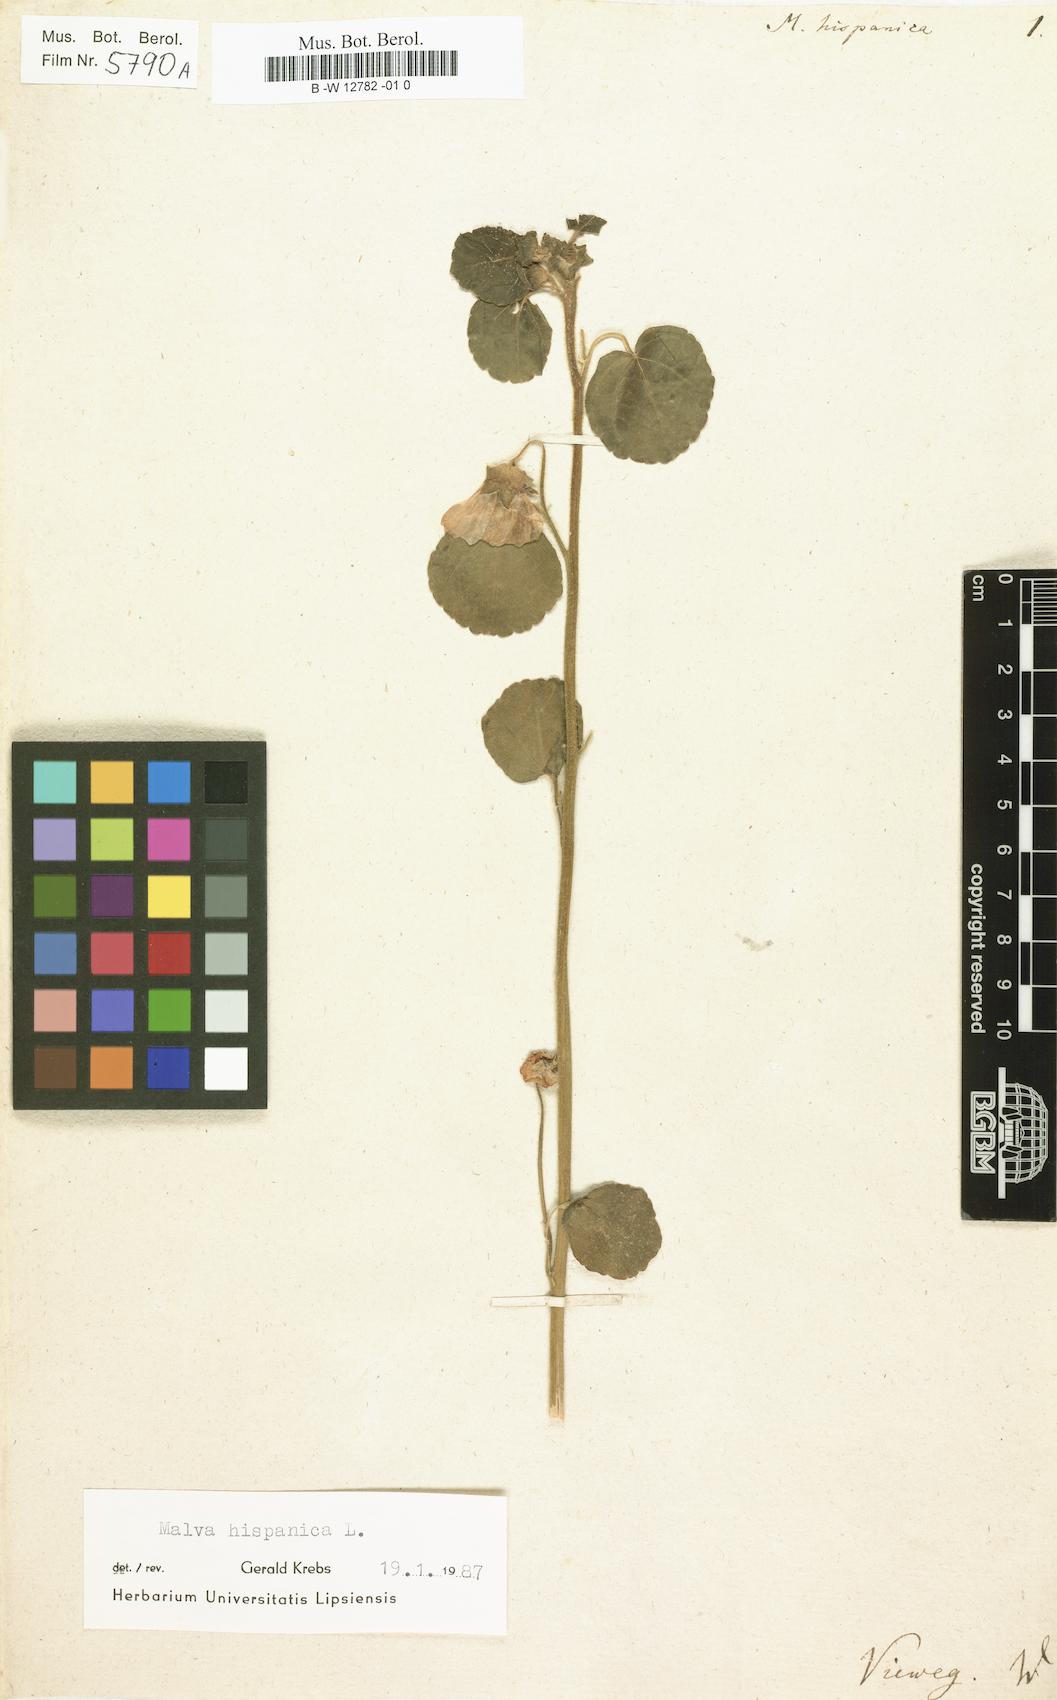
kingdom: Plantae
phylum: Tracheophyta
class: Magnoliopsida
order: Malvales
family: Malvaceae
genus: Malva
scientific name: Malva hispanica
